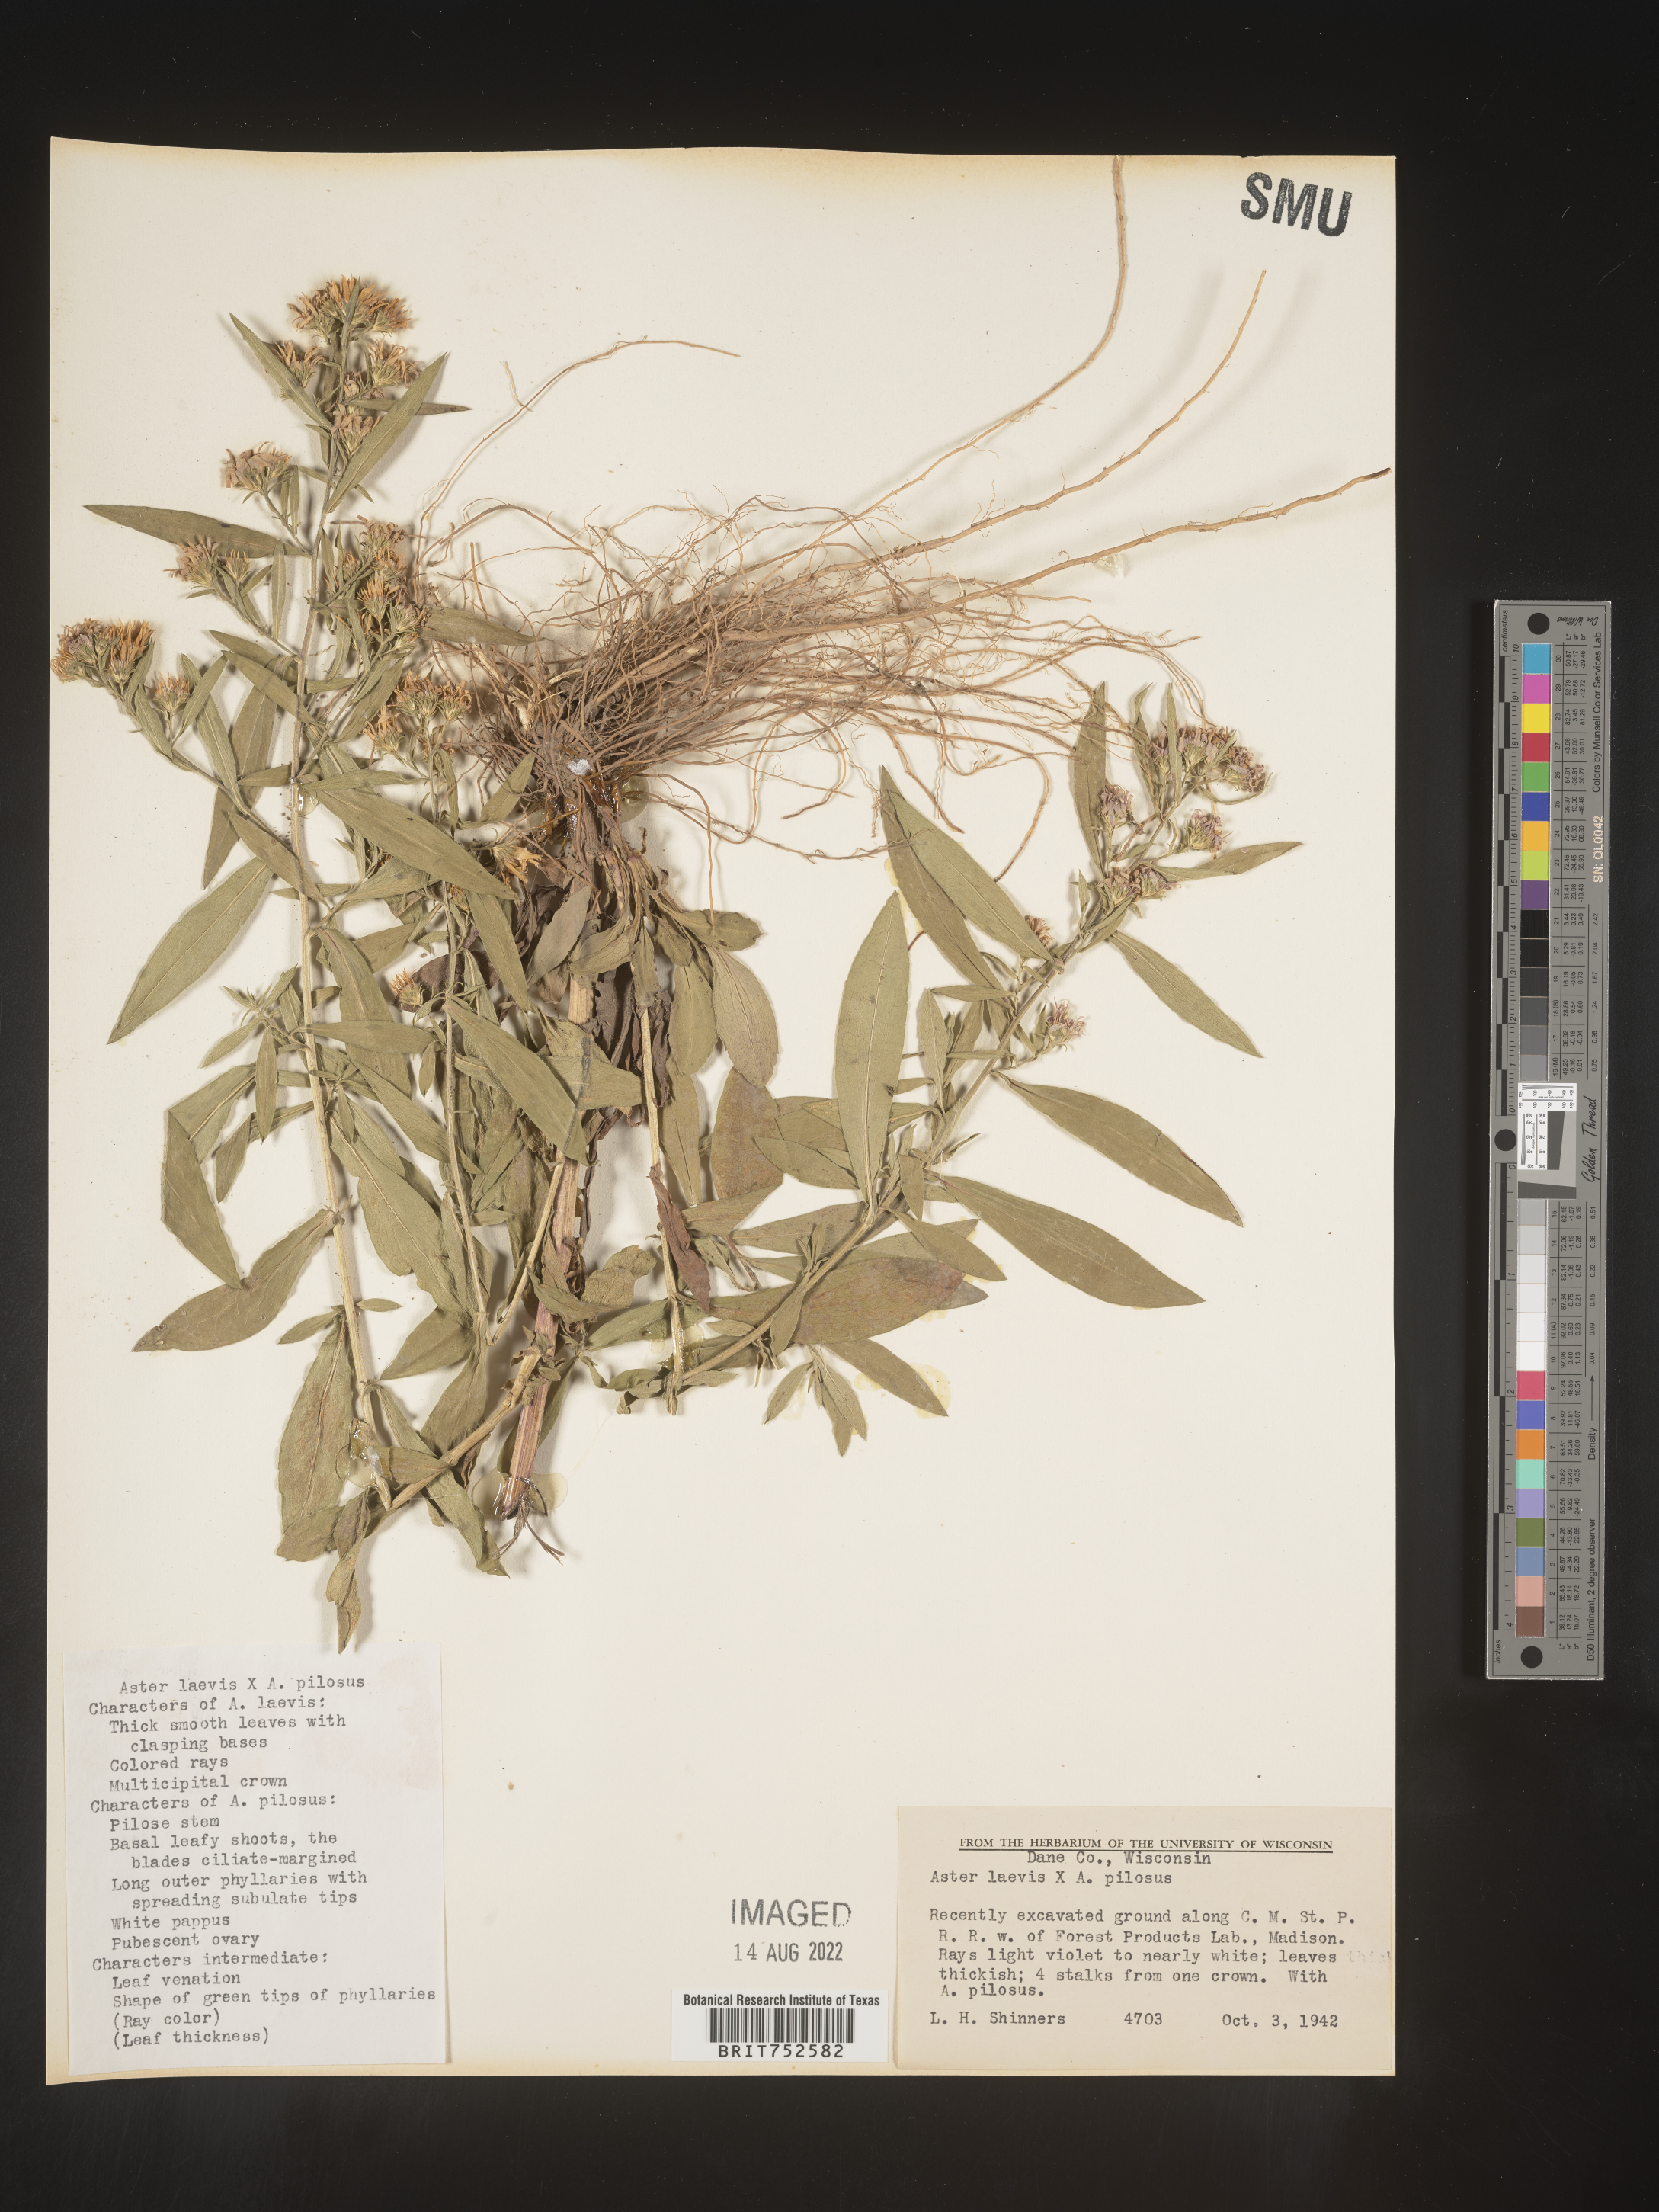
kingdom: Plantae
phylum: Tracheophyta
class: Magnoliopsida
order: Asterales
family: Asteraceae
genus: Symphyotrichum
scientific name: Symphyotrichum laeve
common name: Glaucous aster
